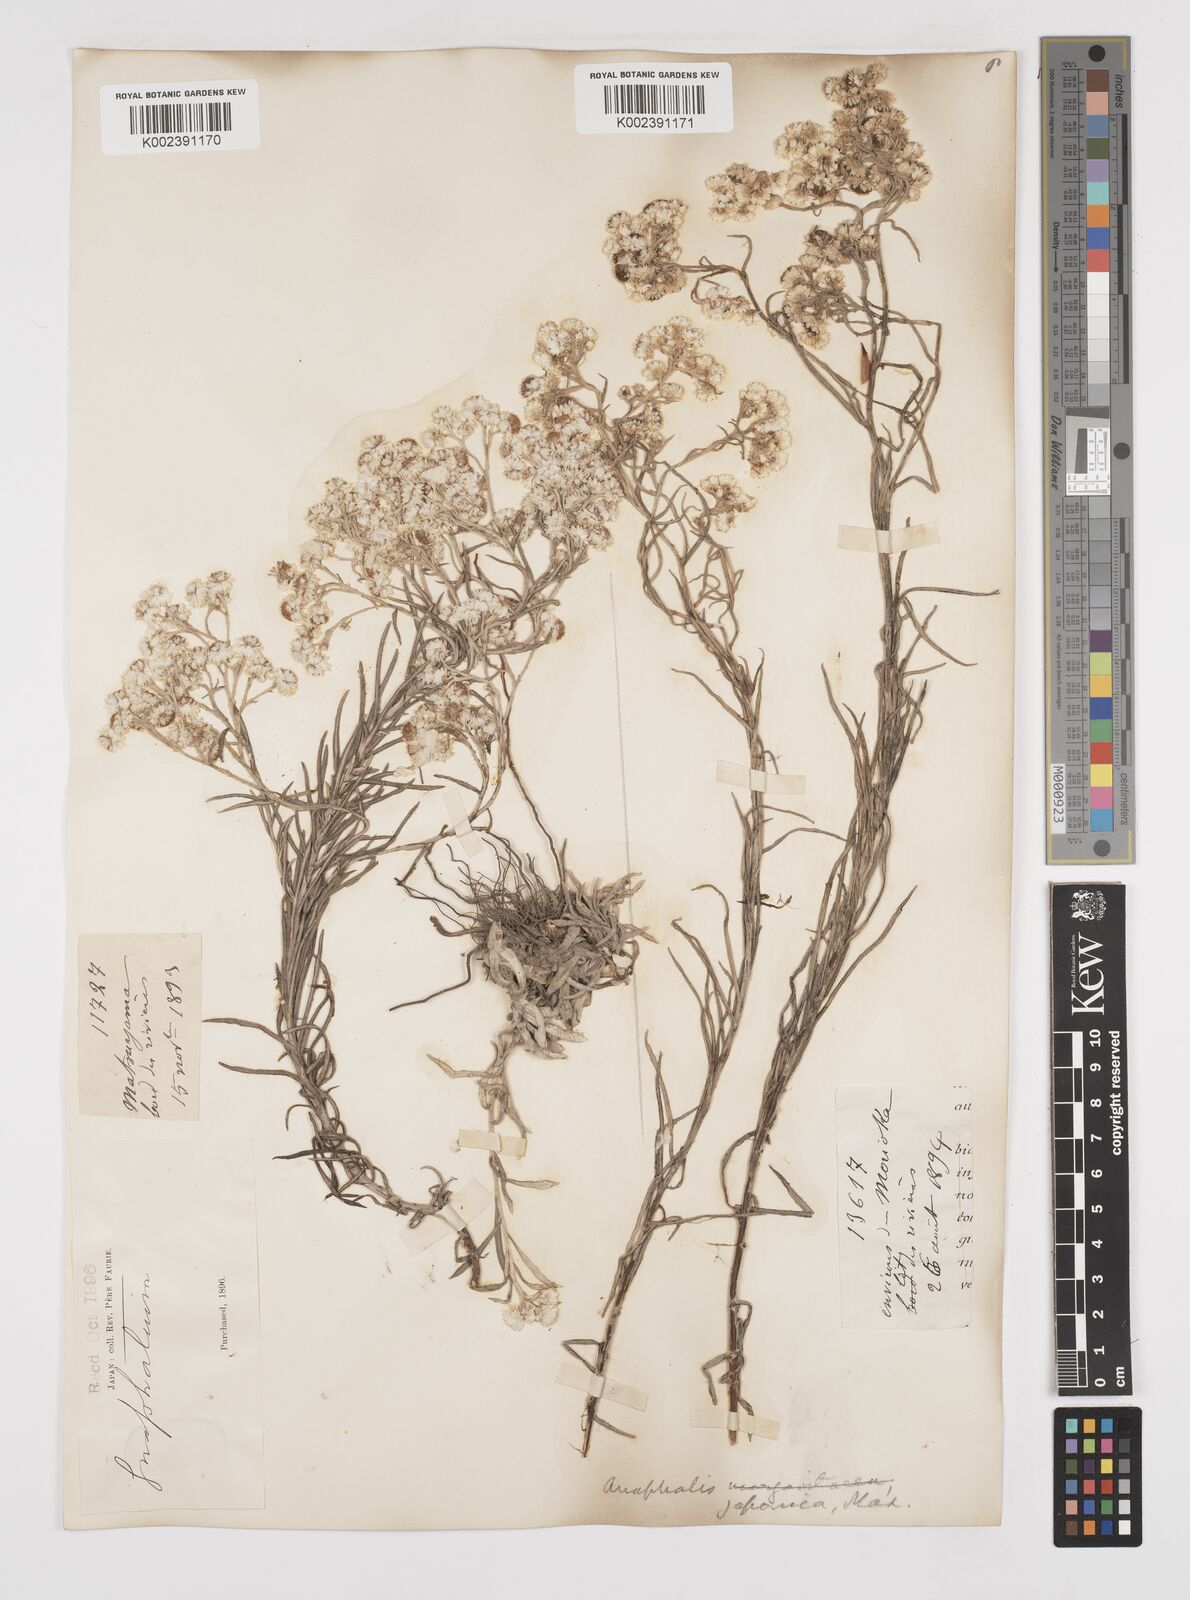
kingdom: Plantae
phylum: Tracheophyta
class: Magnoliopsida
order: Asterales
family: Asteraceae
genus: Anaphalis
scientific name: Anaphalis margaritacea
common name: Pearly everlasting
